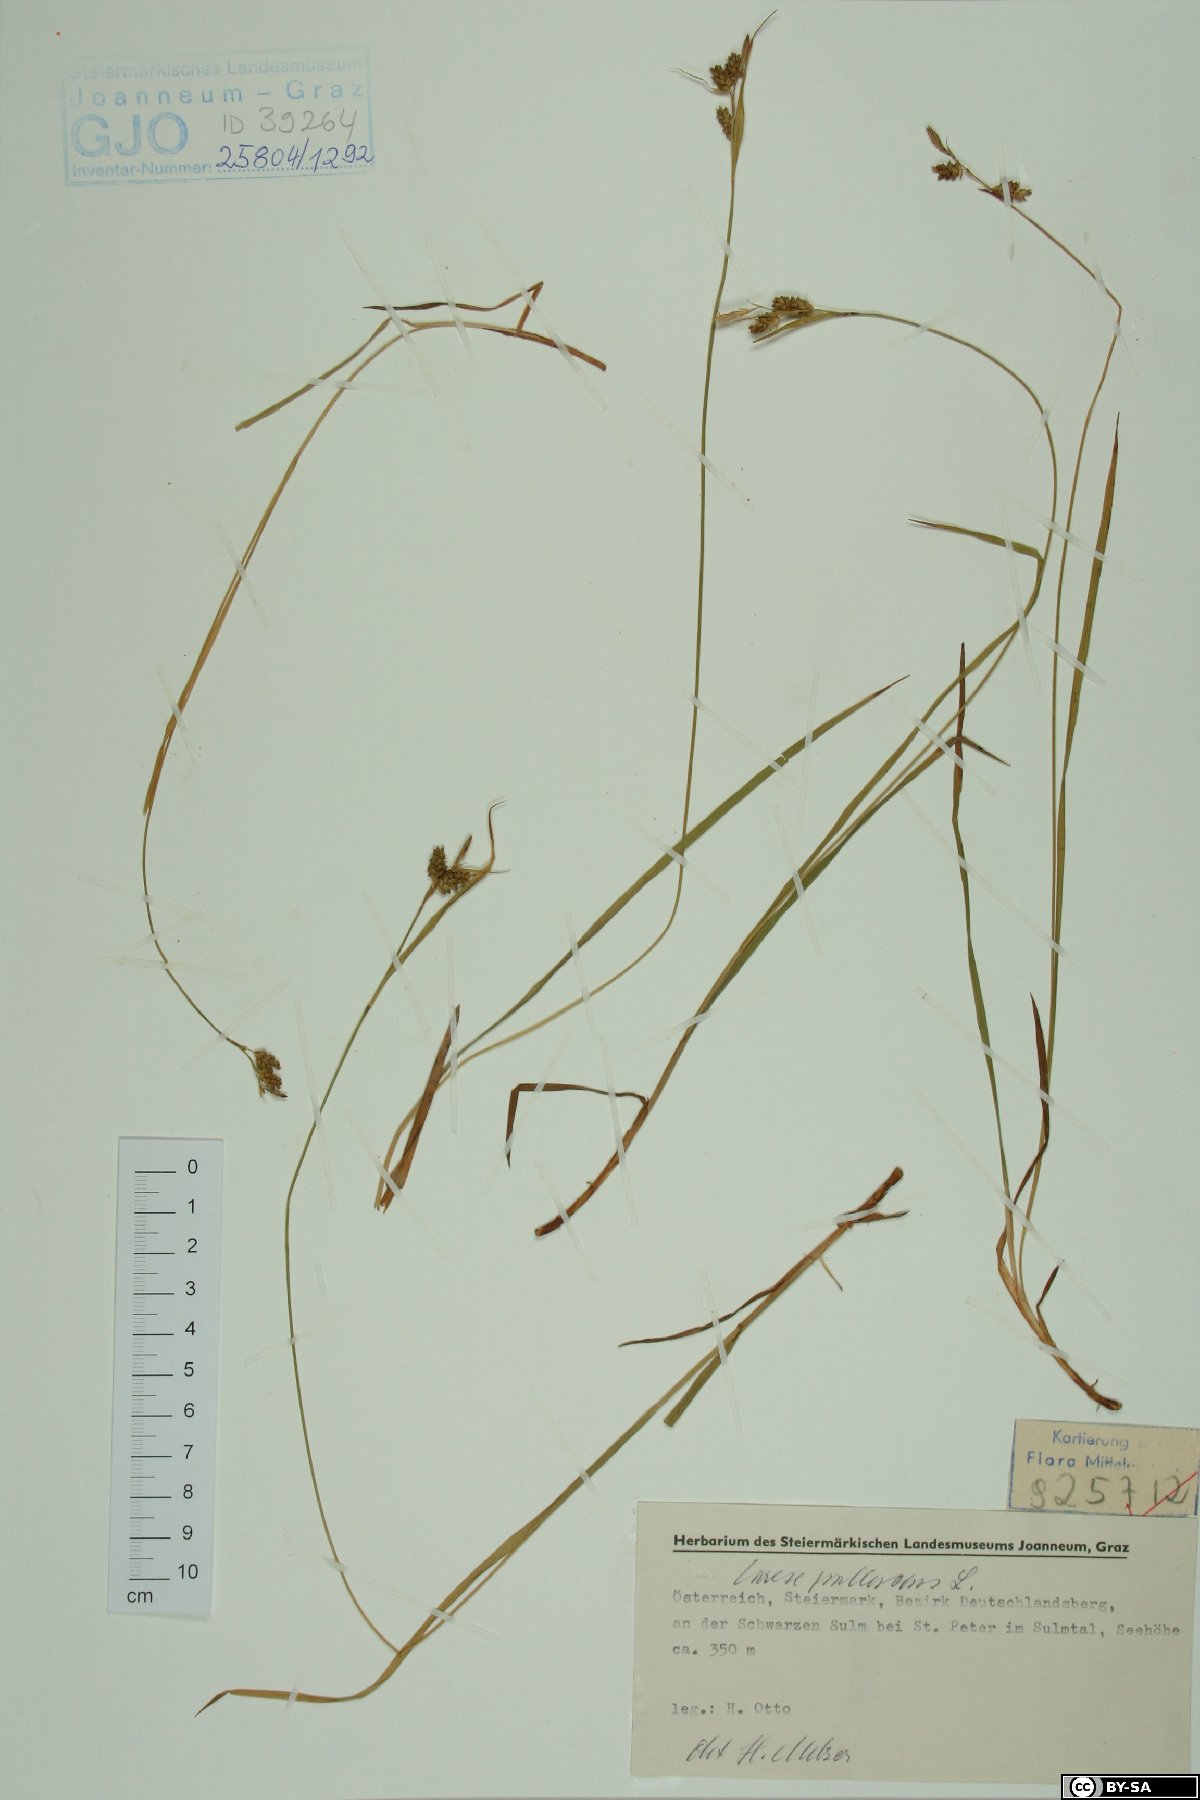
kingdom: Plantae
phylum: Tracheophyta
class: Liliopsida
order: Poales
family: Cyperaceae
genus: Carex
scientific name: Carex pallescens
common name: Pale sedge
